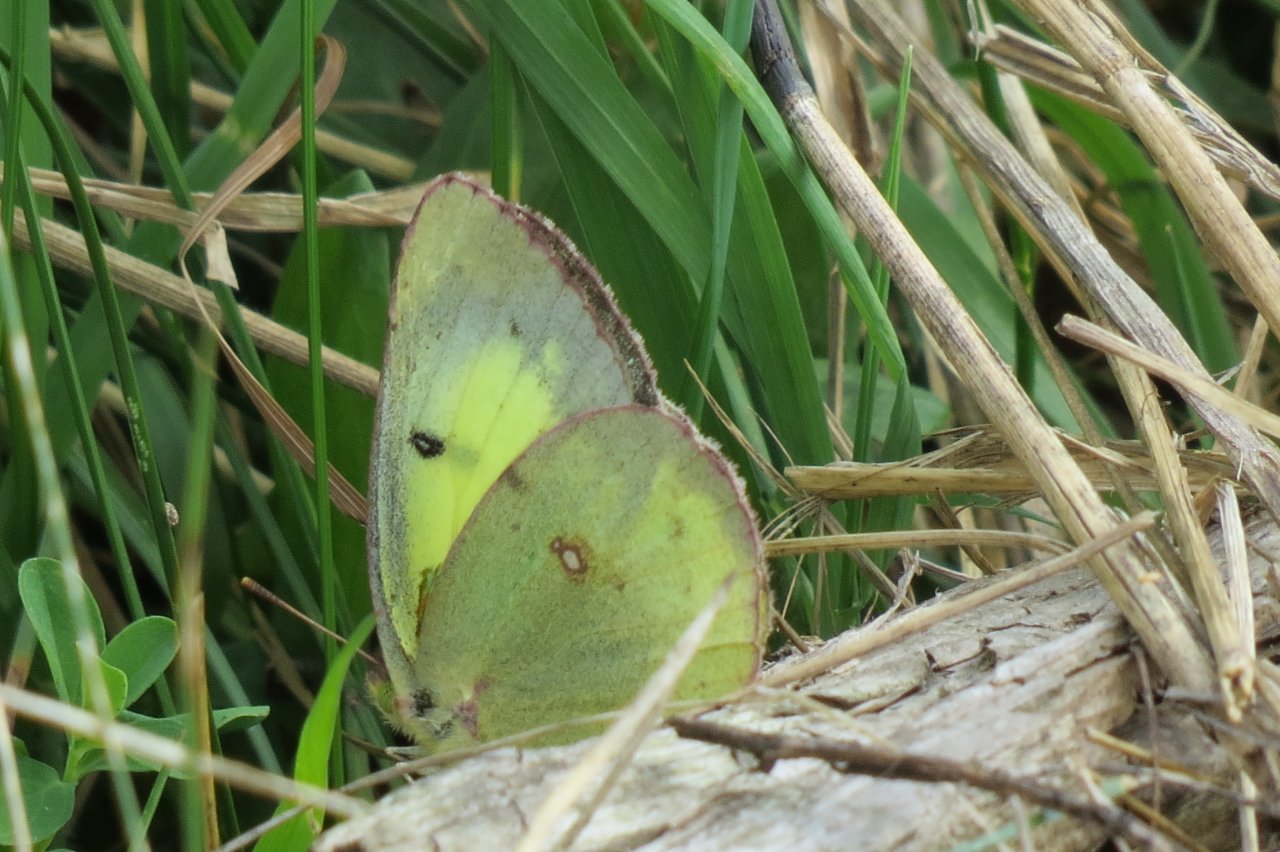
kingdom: Animalia
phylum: Arthropoda
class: Insecta
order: Lepidoptera
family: Pieridae
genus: Colias
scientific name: Colias philodice
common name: Clouded Sulphur
